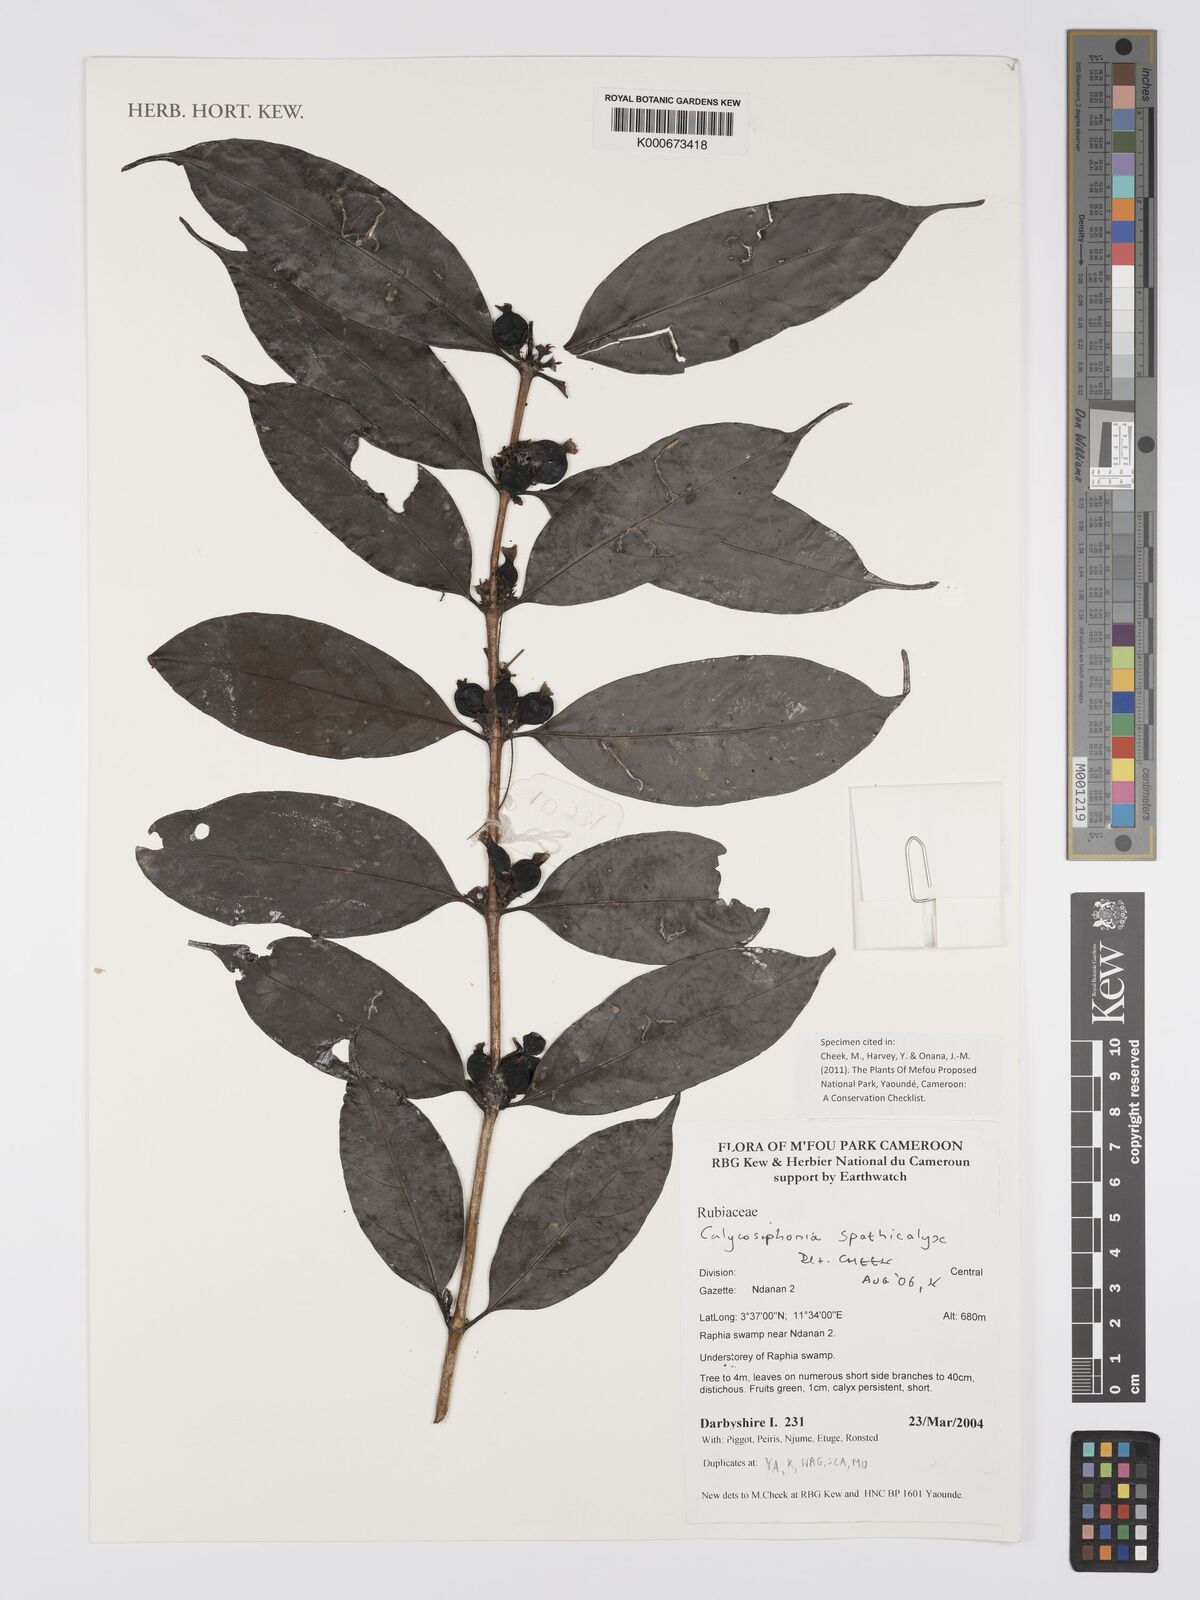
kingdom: Plantae
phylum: Tracheophyta
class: Magnoliopsida
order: Gentianales
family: Rubiaceae
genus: Calycosiphonia
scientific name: Calycosiphonia spathicalyx
